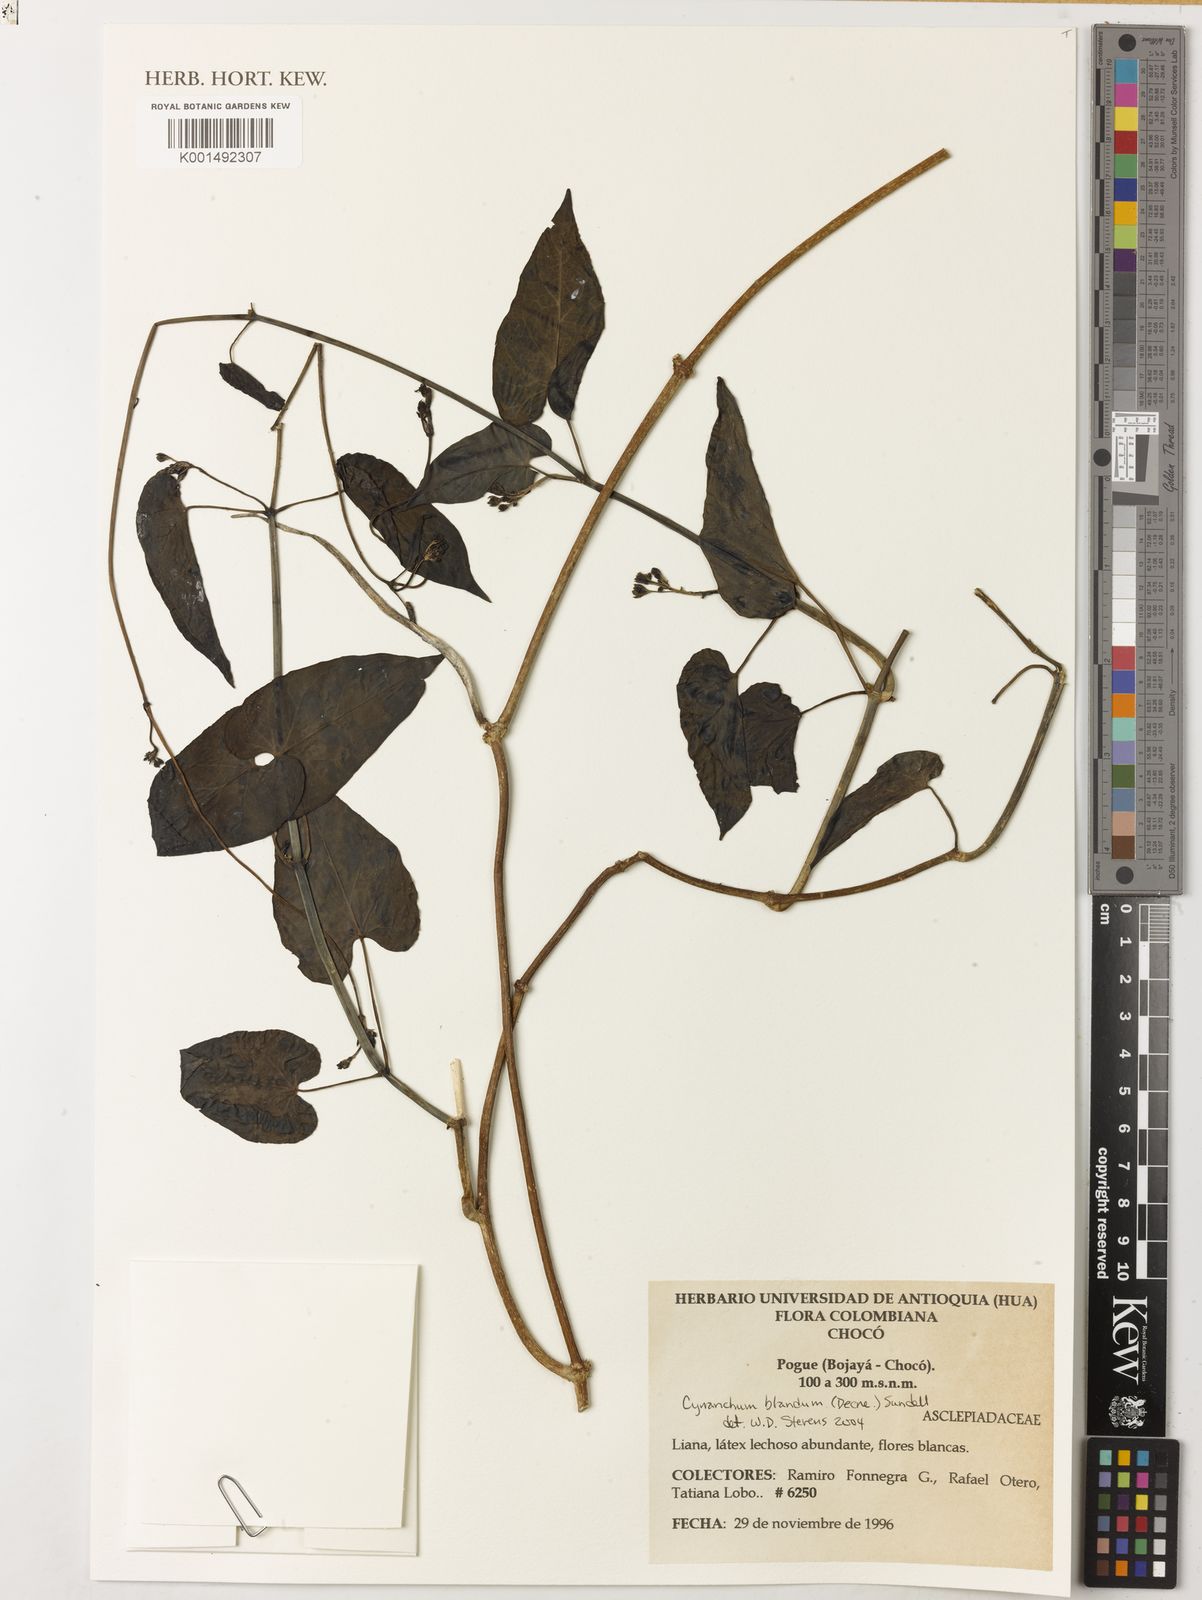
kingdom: Plantae
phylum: Tracheophyta
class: Magnoliopsida
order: Gentianales
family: Apocynaceae
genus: Cynanchum
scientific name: Cynanchum blandum
